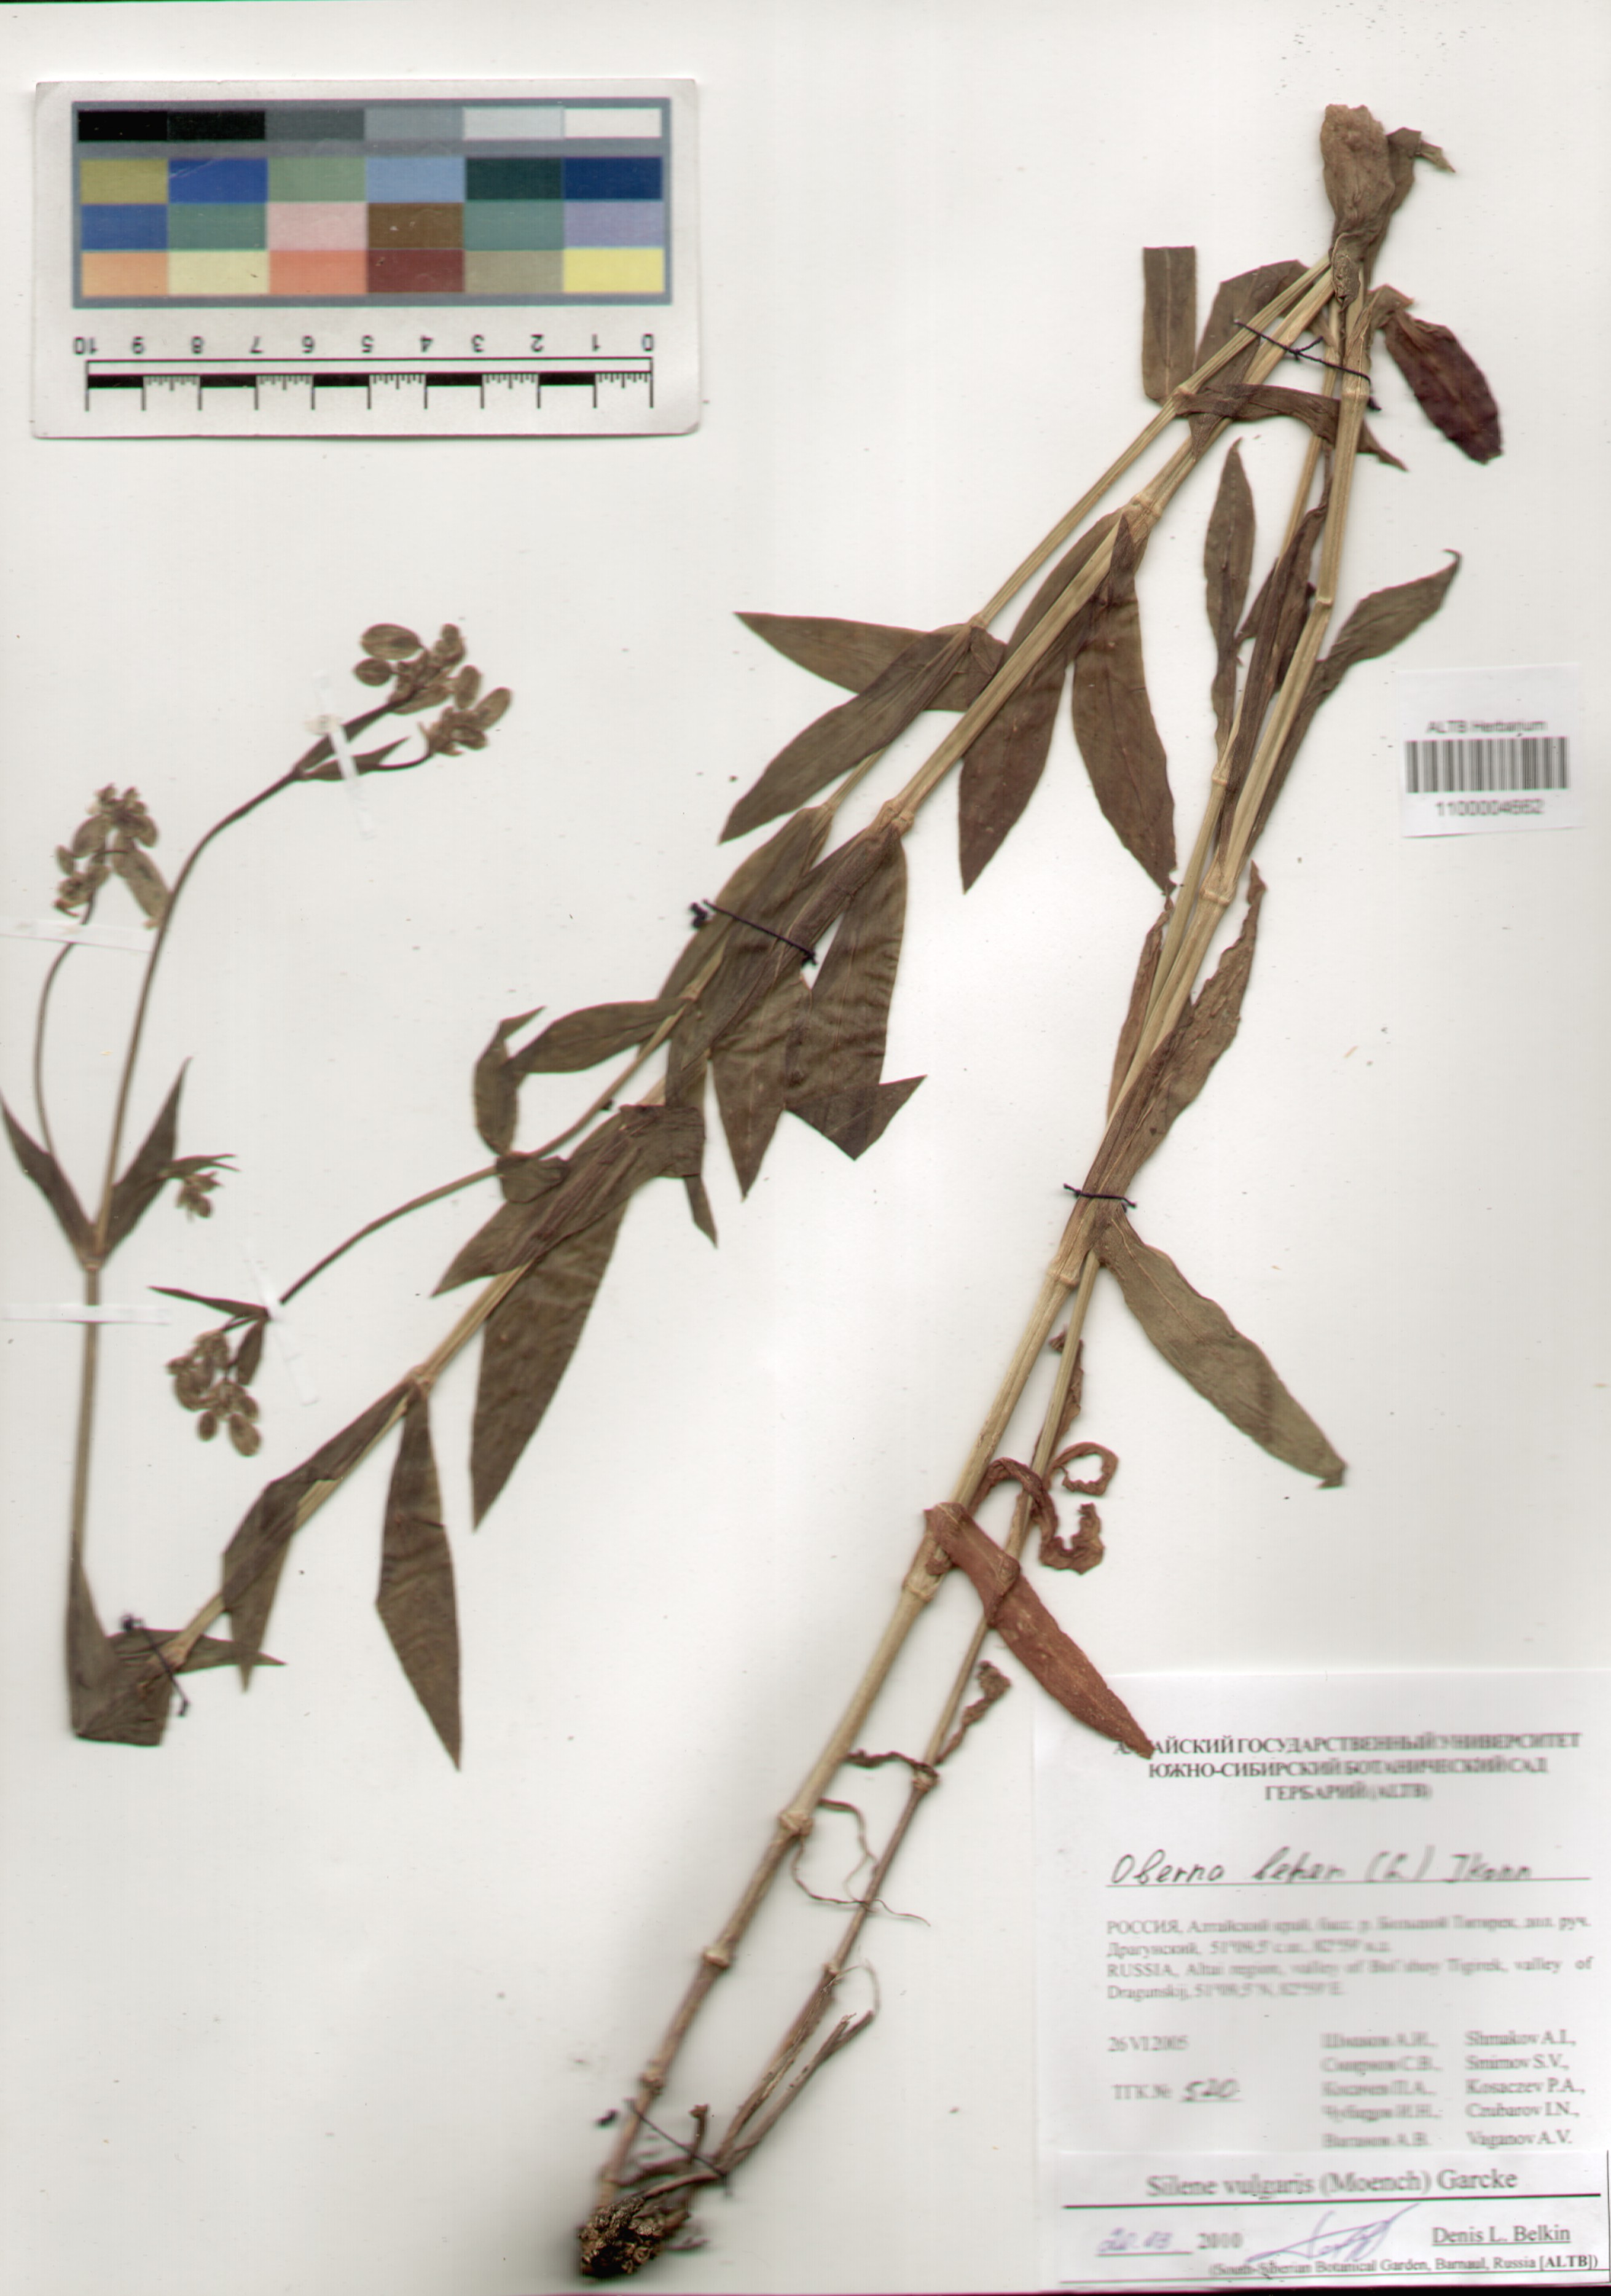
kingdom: Plantae
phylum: Tracheophyta
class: Magnoliopsida
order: Caryophyllales
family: Caryophyllaceae
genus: Silene
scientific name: Silene vulgaris
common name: Bladder campion
